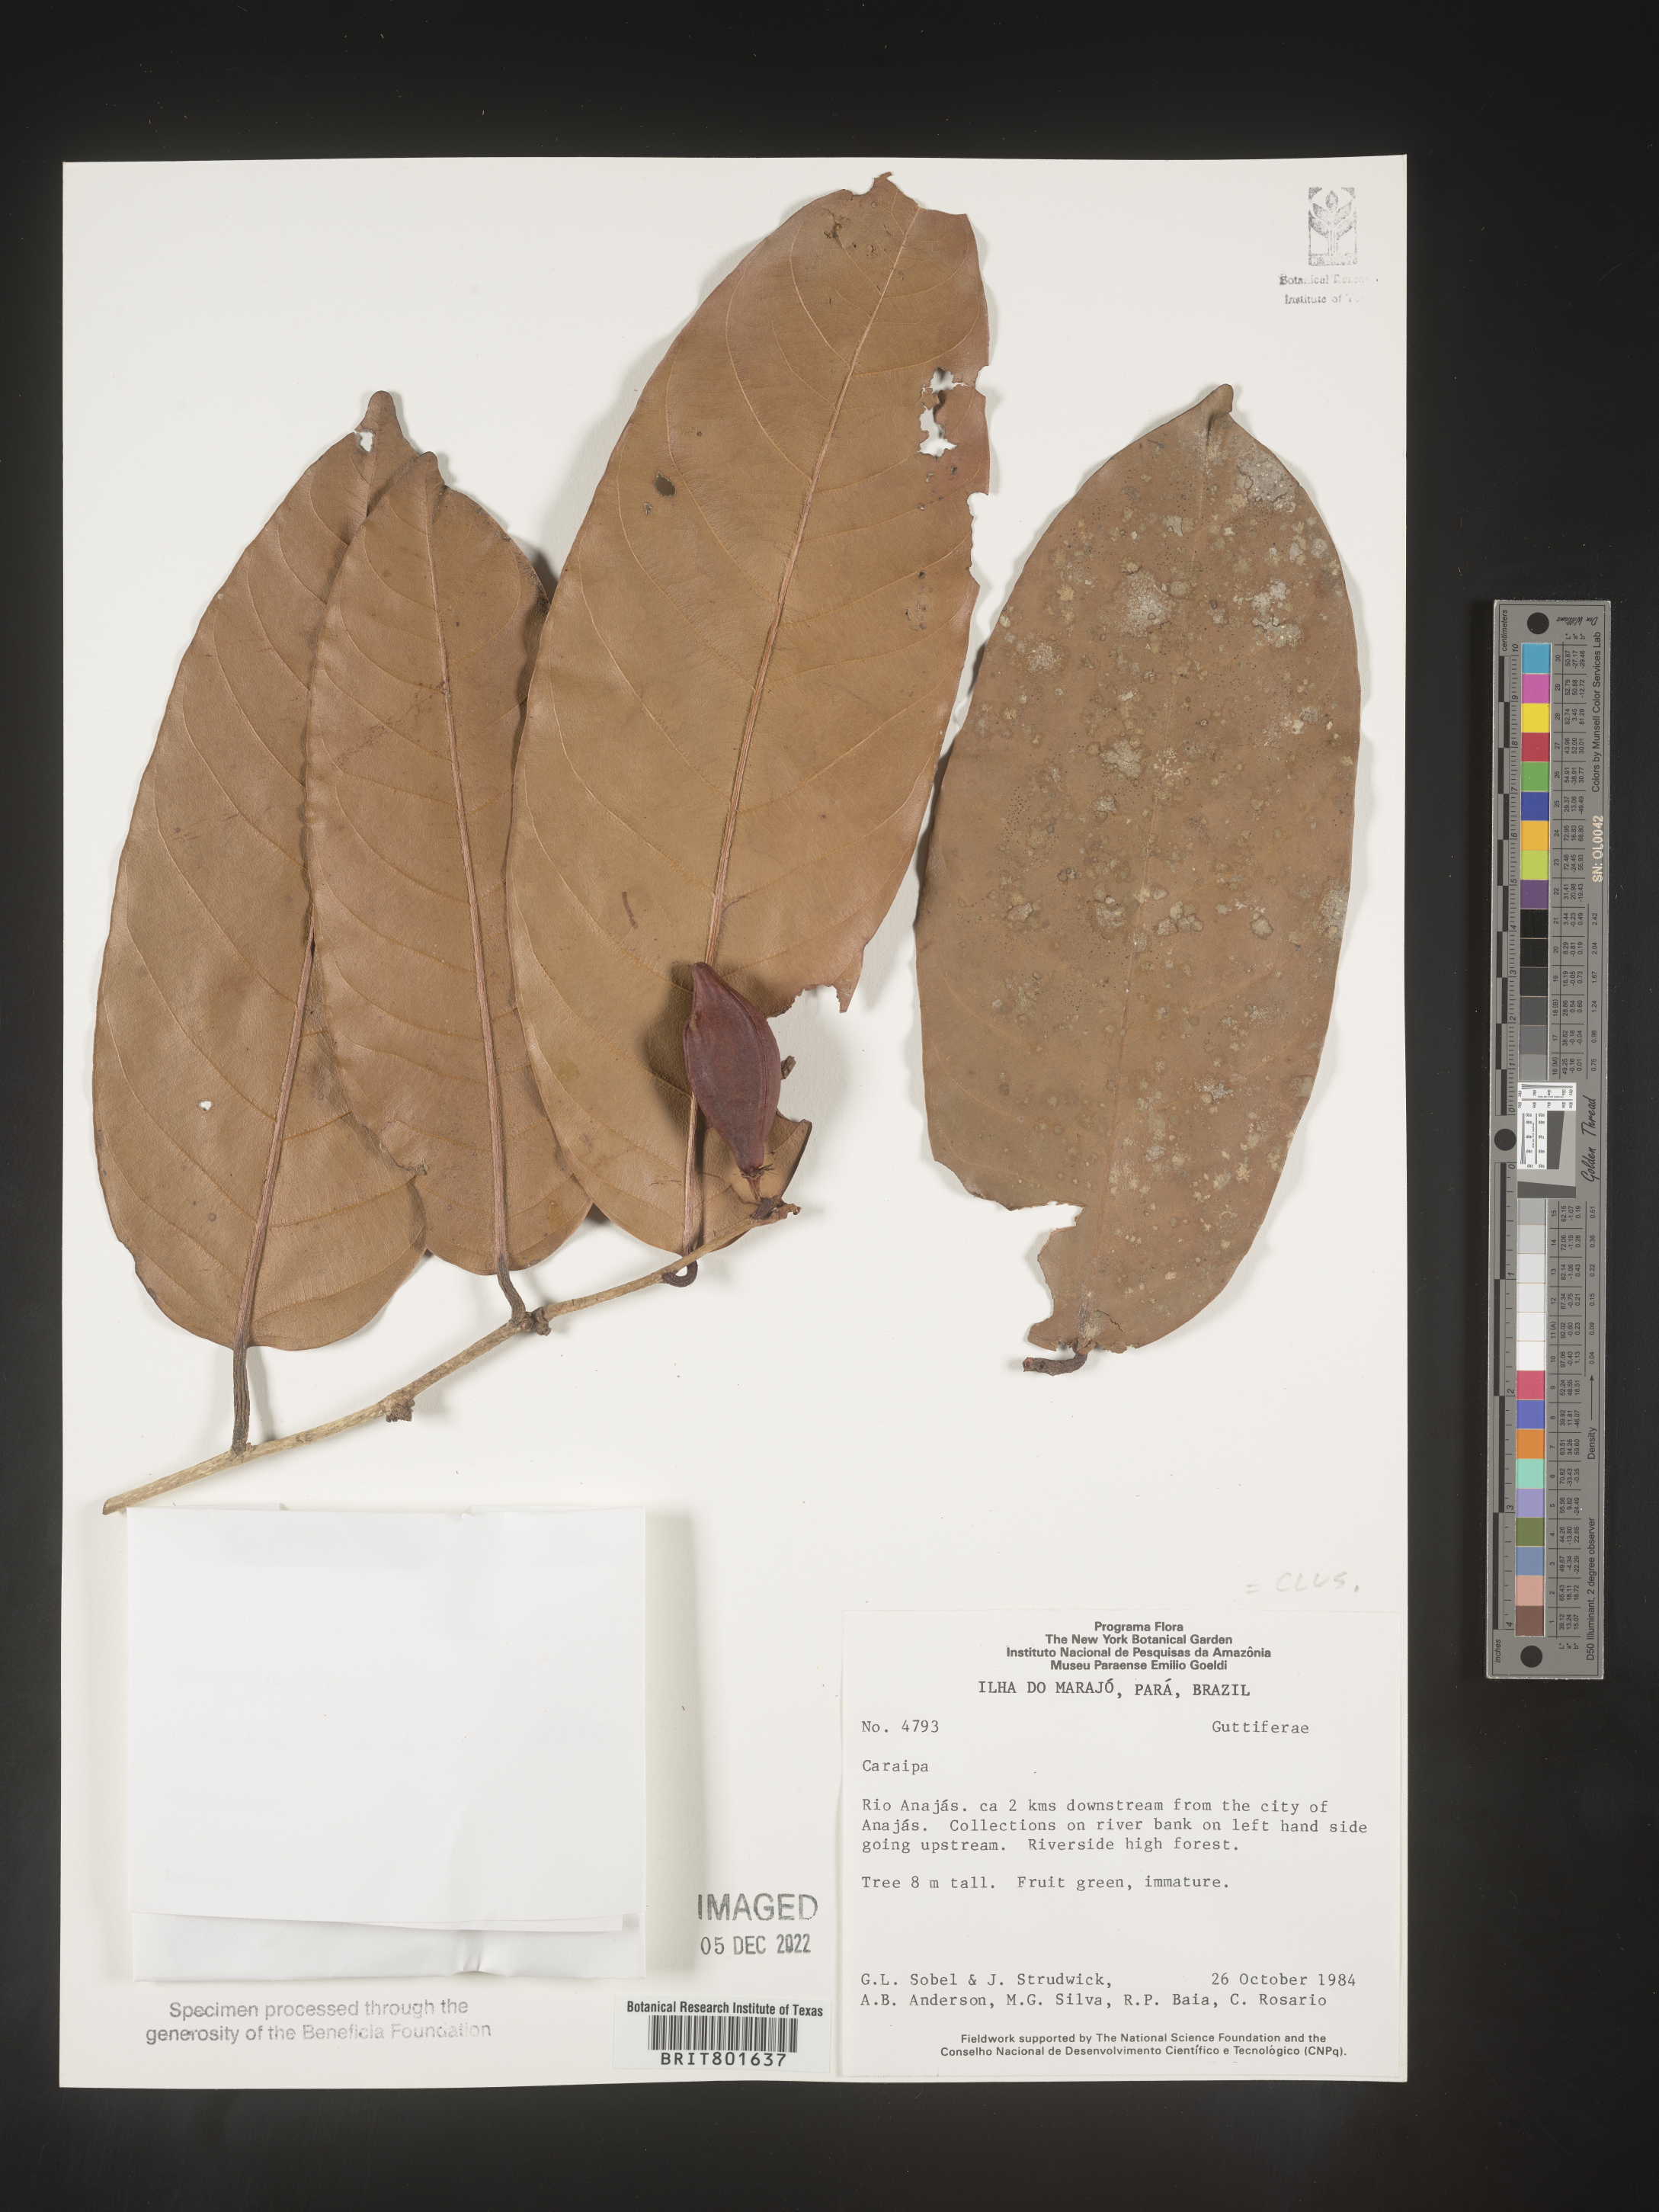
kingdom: Plantae
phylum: Tracheophyta
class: Magnoliopsida
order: Malpighiales
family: Calophyllaceae
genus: Caraipa
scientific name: Caraipa
